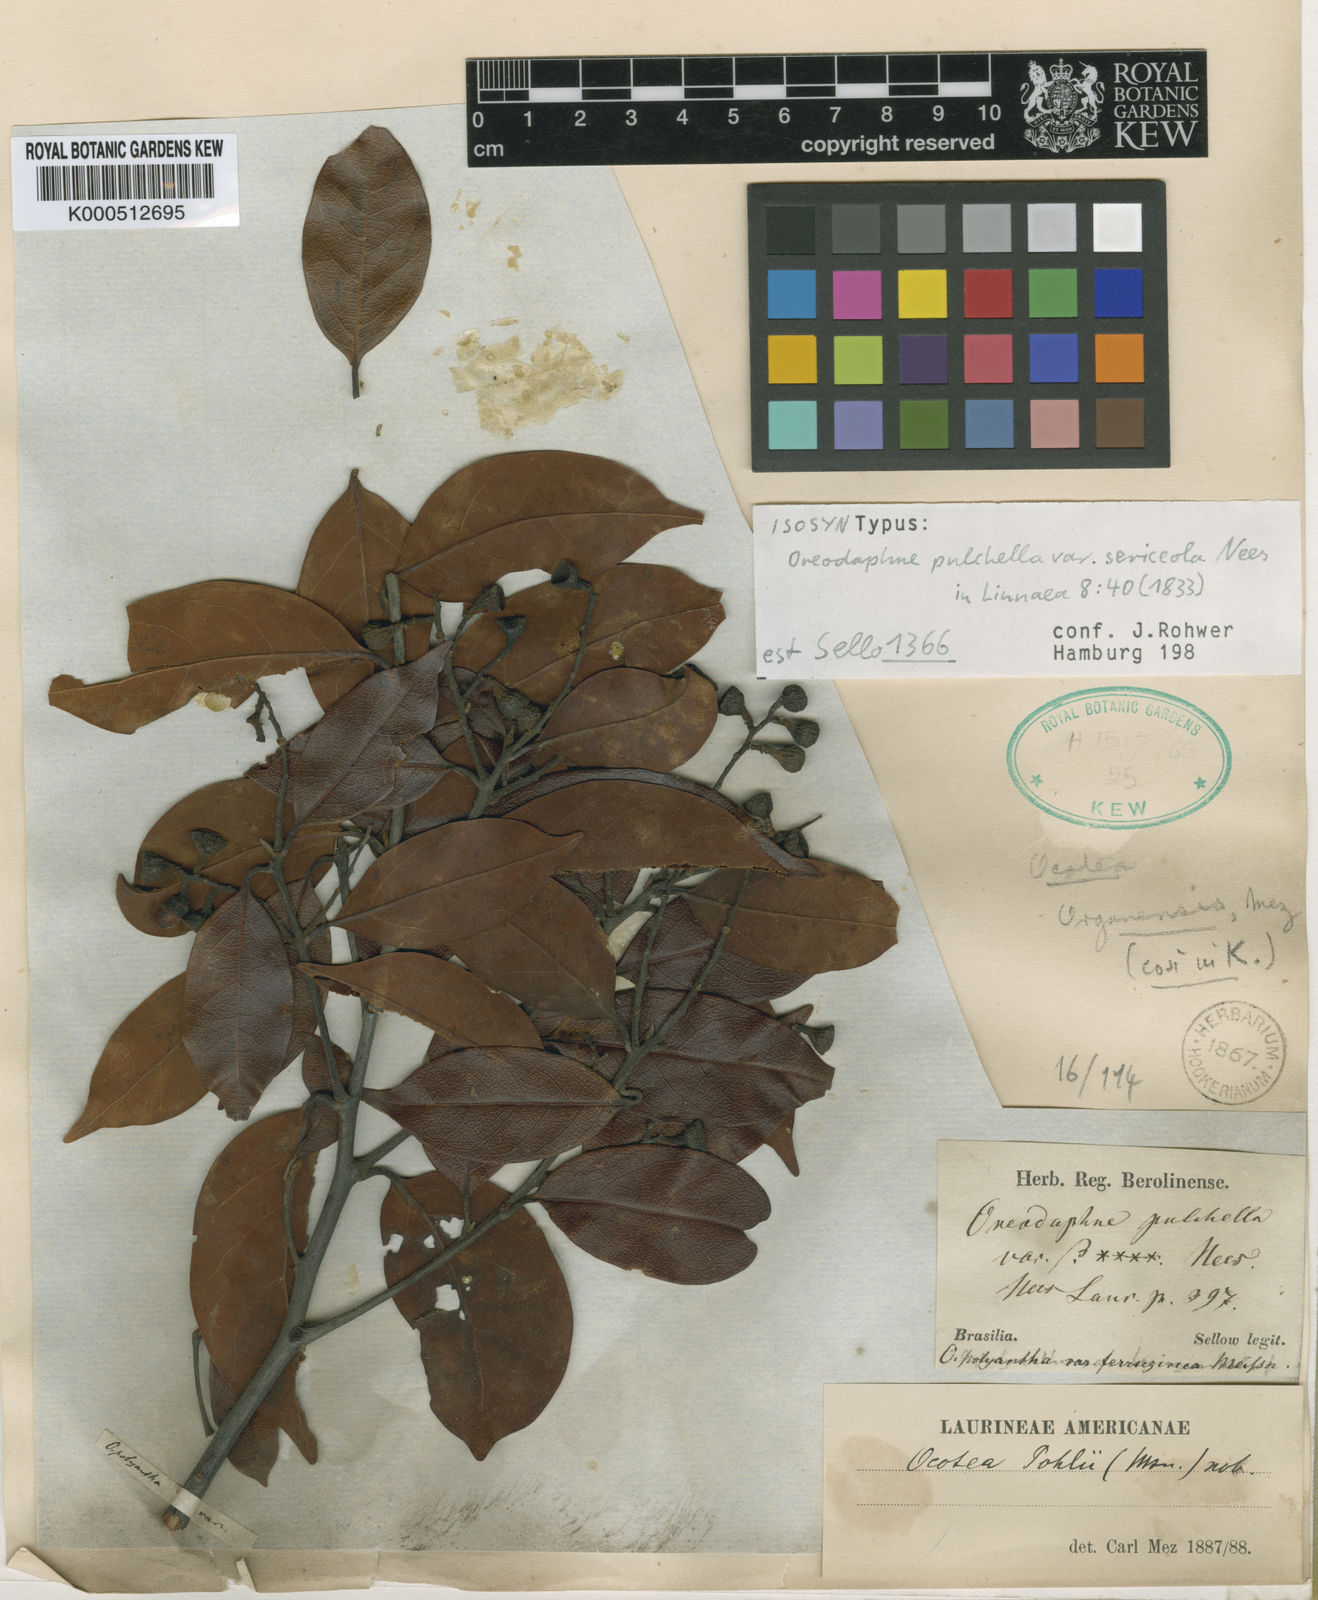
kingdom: Plantae
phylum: Tracheophyta
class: Magnoliopsida
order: Laurales
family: Lauraceae
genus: Mespilodaphne
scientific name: Mespilodaphne pulchella
